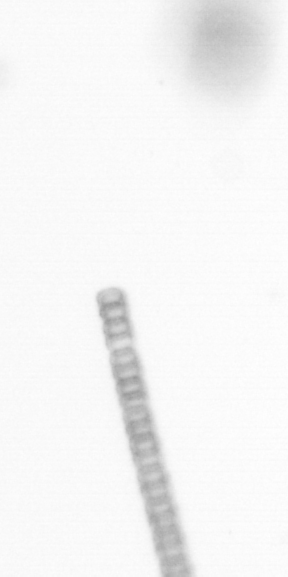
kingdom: Chromista
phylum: Ochrophyta
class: Bacillariophyceae
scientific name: Bacillariophyceae
